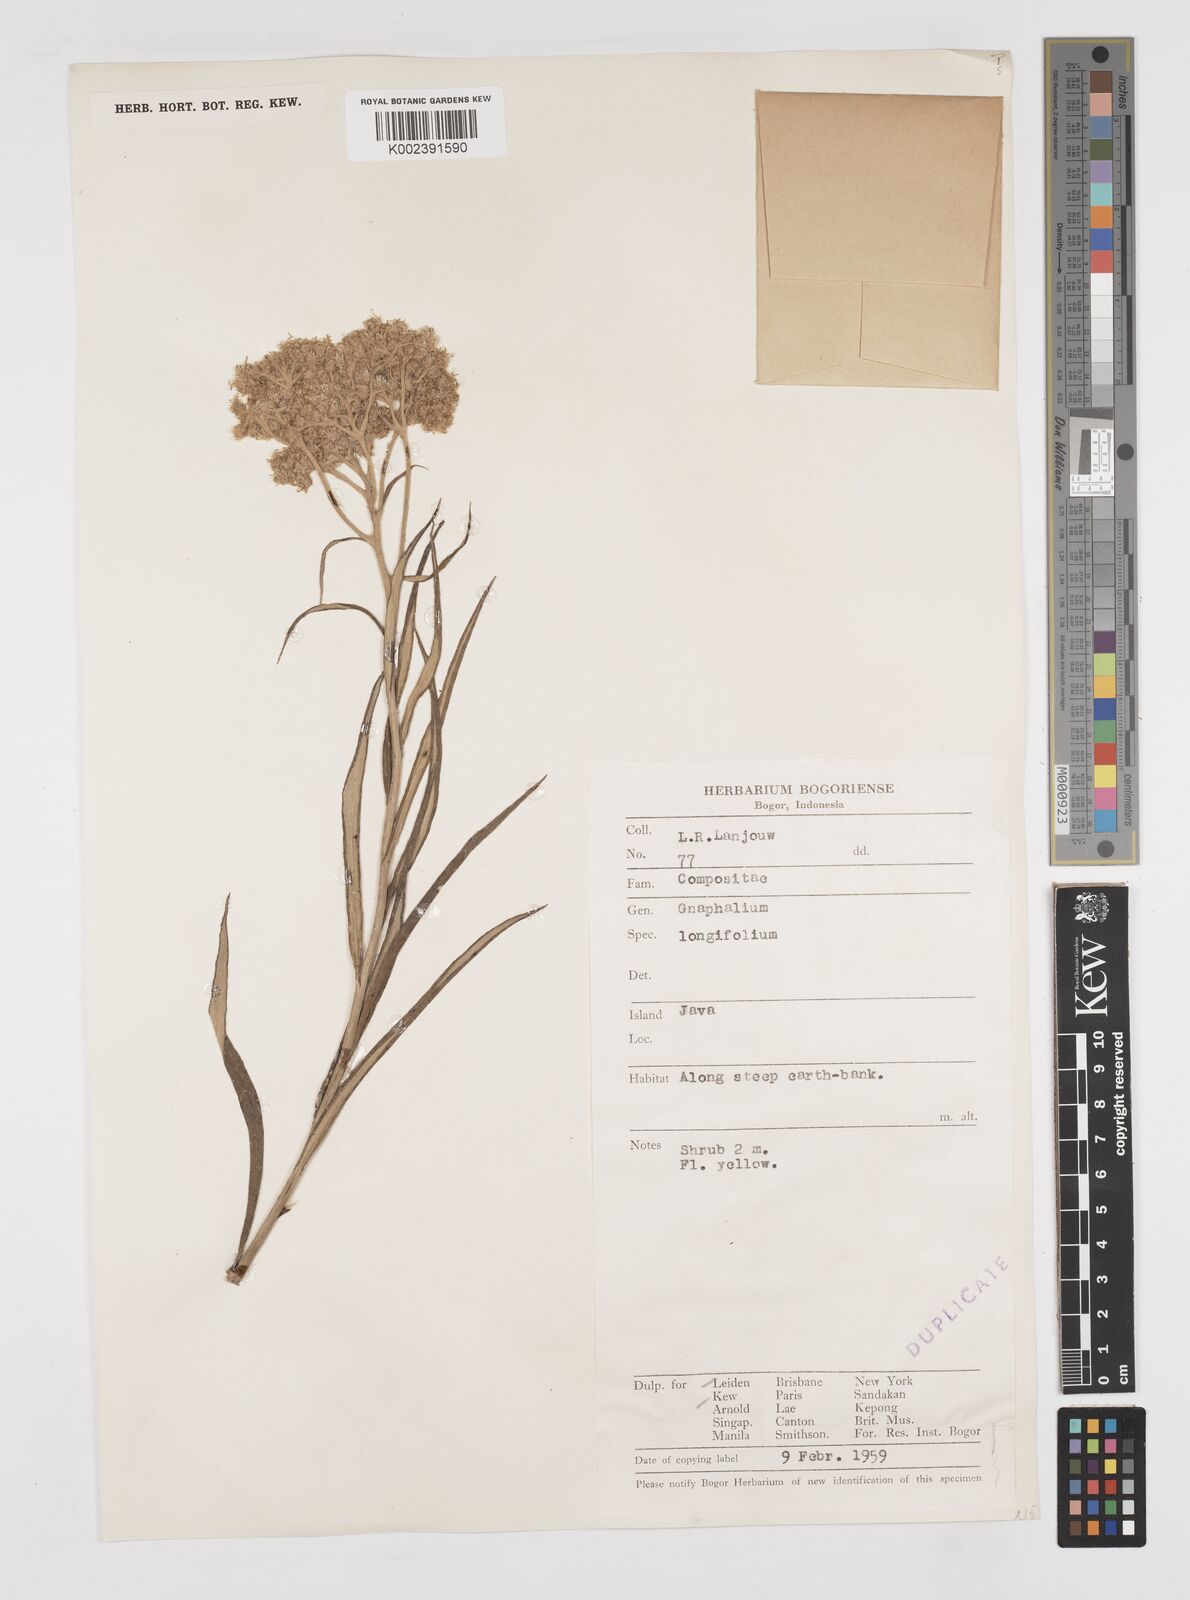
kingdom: Plantae
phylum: Tracheophyta
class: Magnoliopsida
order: Asterales
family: Asteraceae
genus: Anaphalis
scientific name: Anaphalis longifolia
